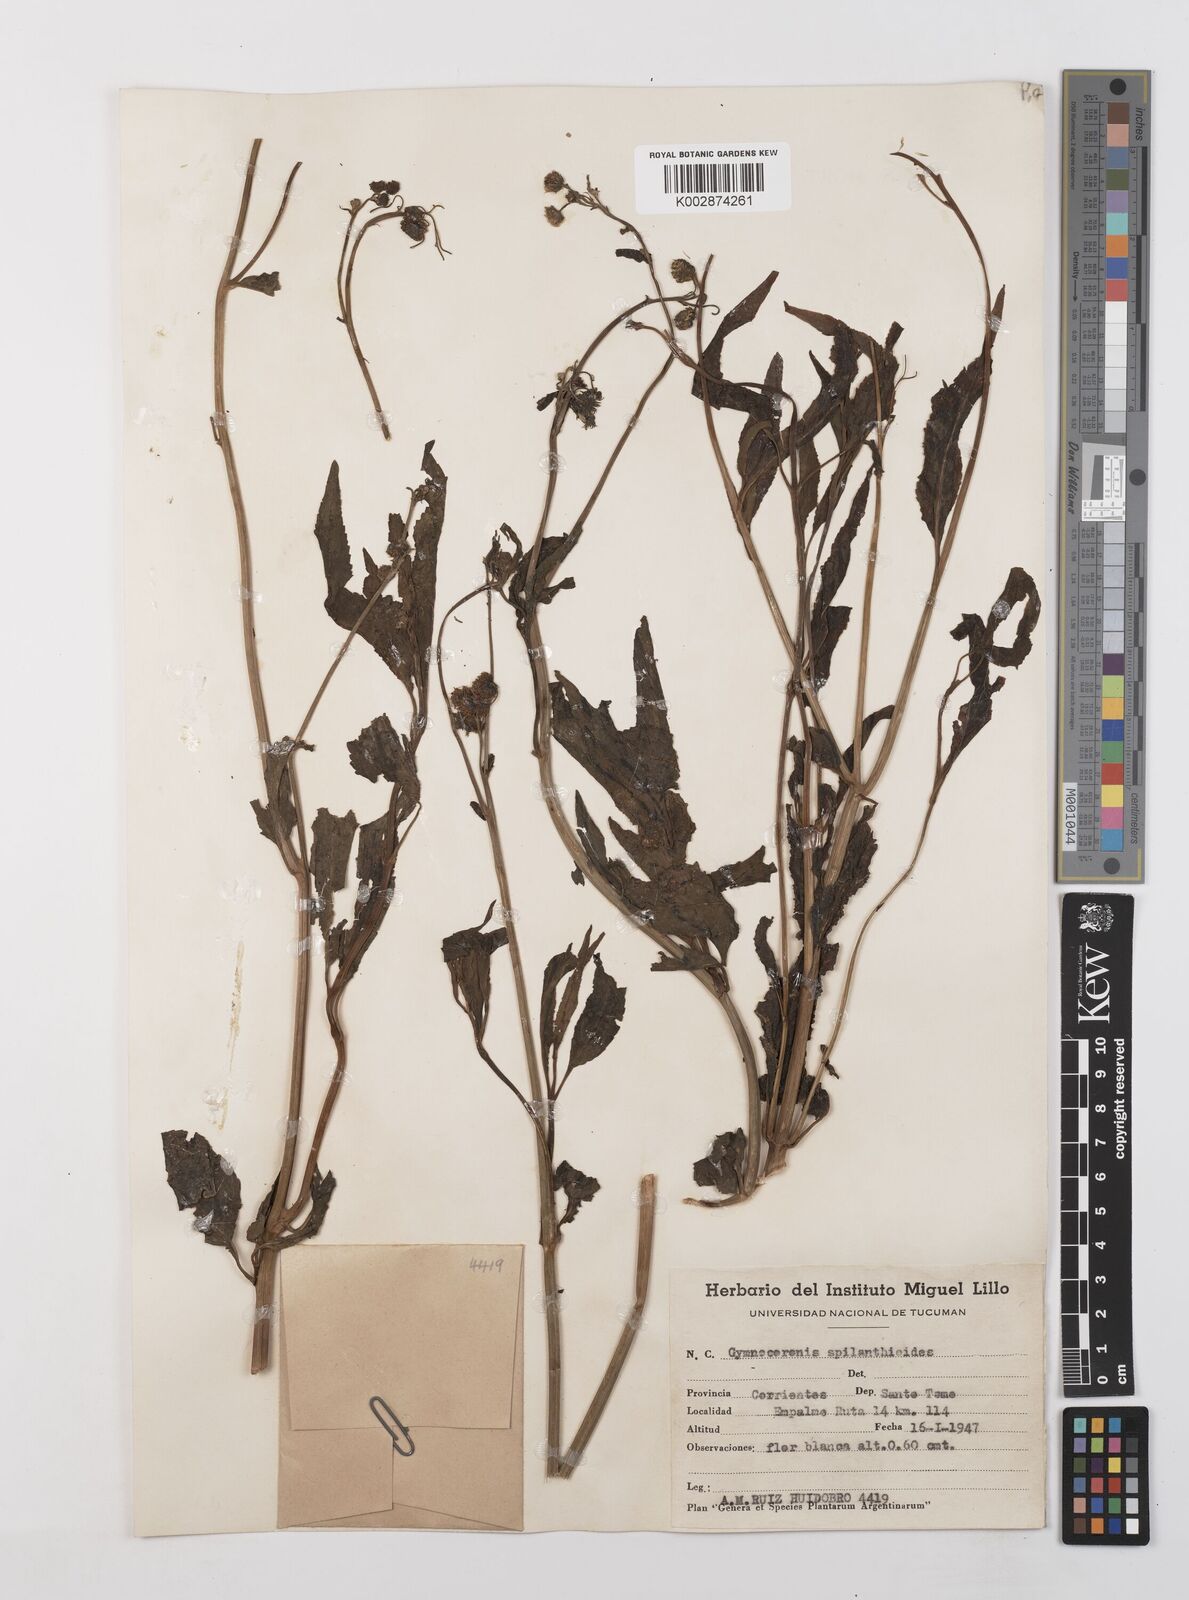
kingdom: Plantae
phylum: Tracheophyta
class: Magnoliopsida
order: Asterales
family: Asteraceae
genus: Gymnocoronis
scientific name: Gymnocoronis spilanthoides
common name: Senegal teaplant
